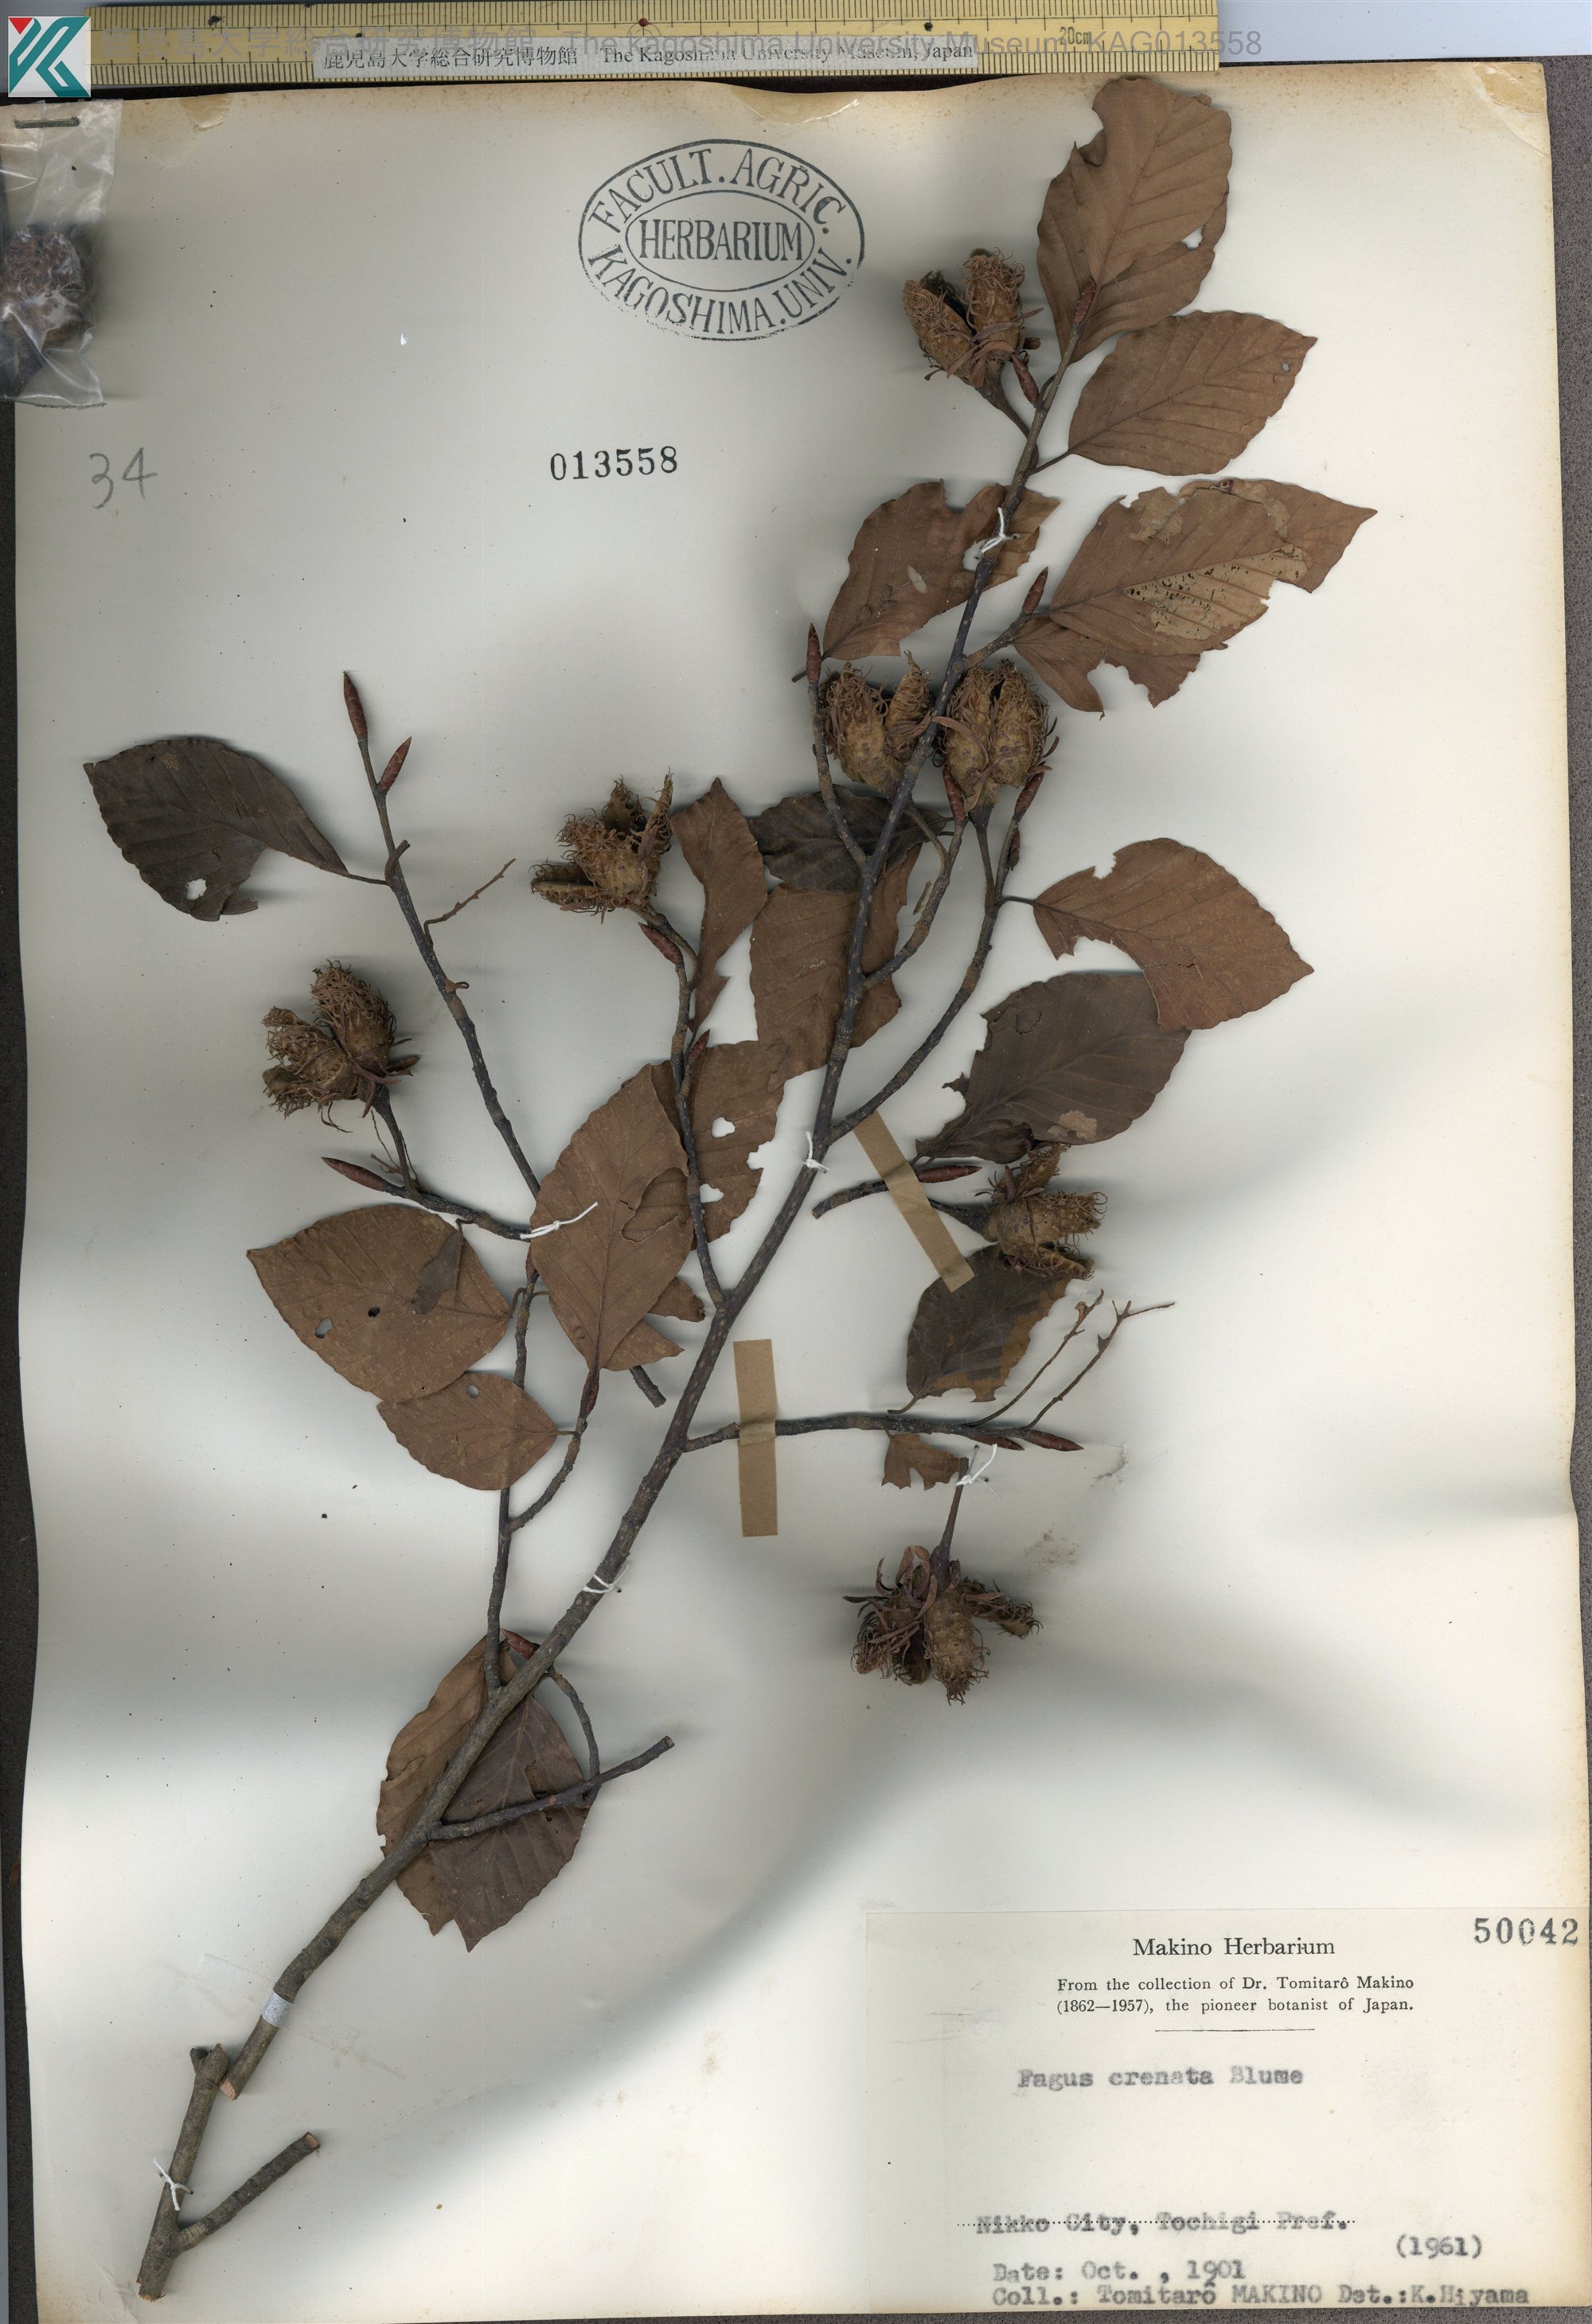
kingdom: Plantae
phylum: Tracheophyta
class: Magnoliopsida
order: Fagales
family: Fagaceae
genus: Fagus
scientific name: Fagus crenata
